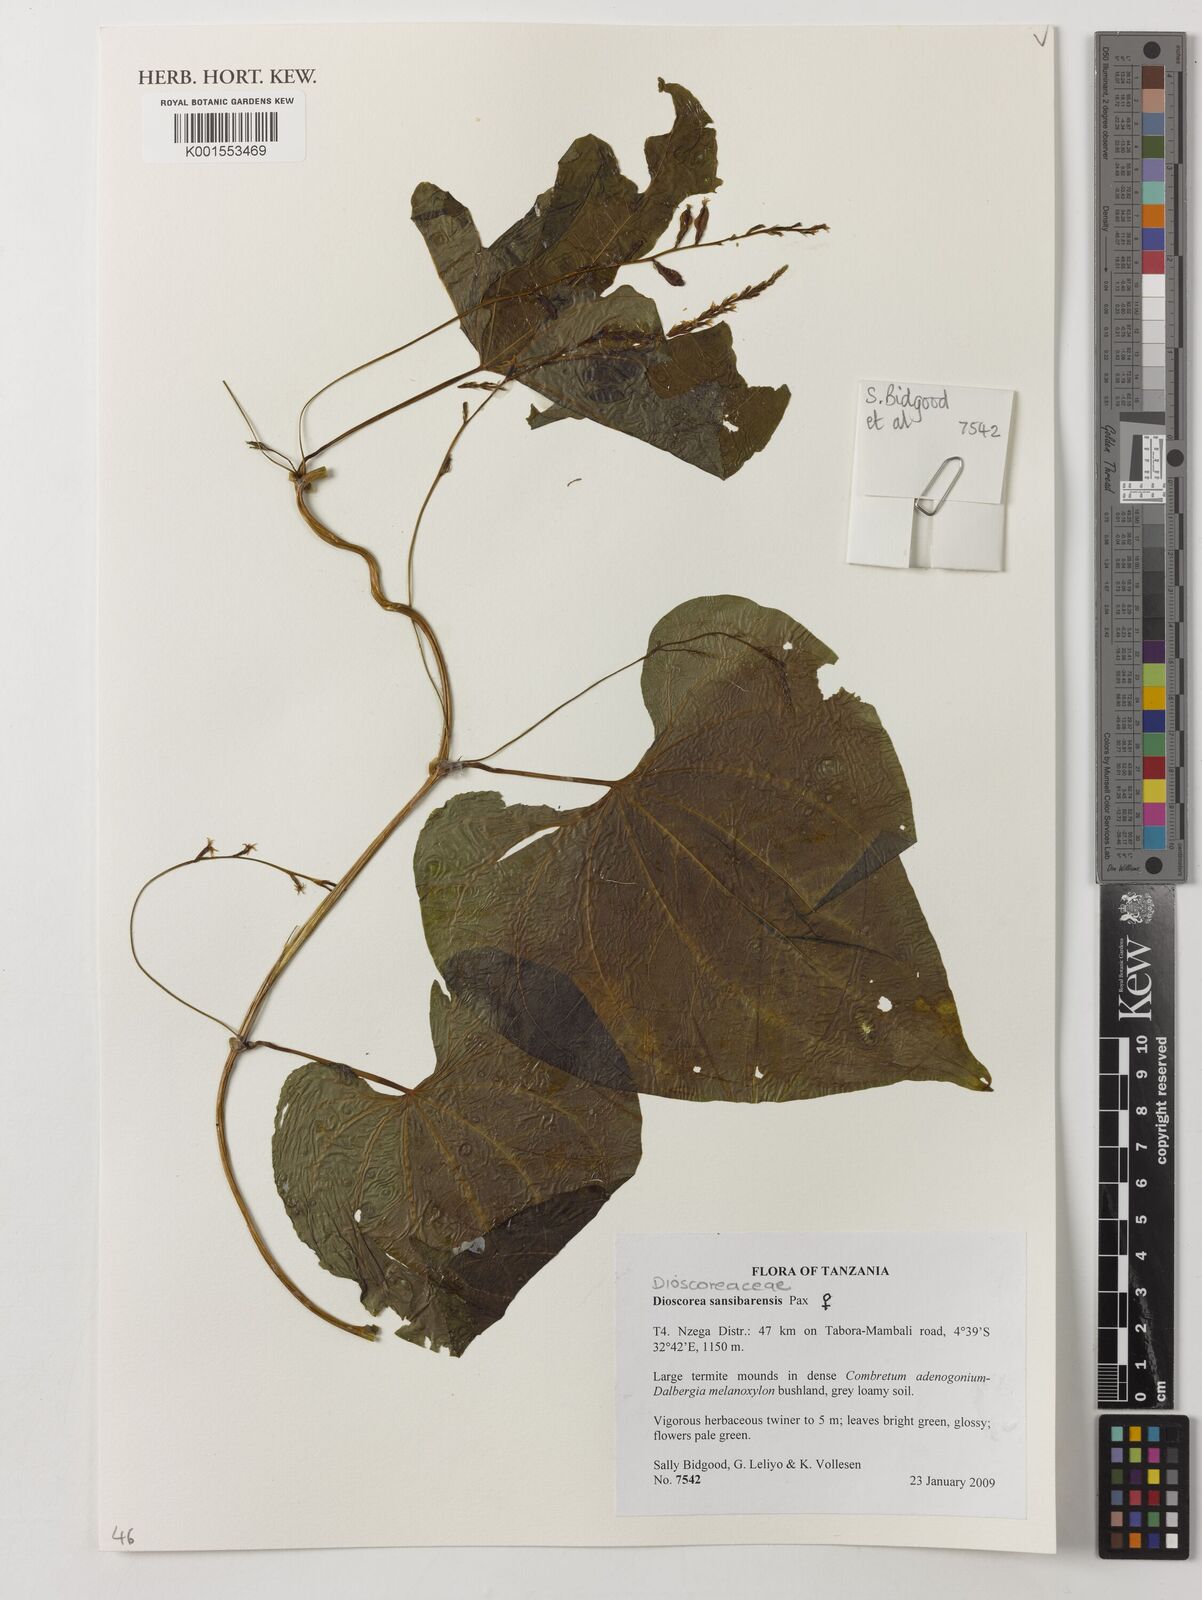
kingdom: Plantae
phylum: Tracheophyta
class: Liliopsida
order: Dioscoreales
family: Dioscoreaceae
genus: Dioscorea
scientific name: Dioscorea sansibarensis
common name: Zanzibar yam
